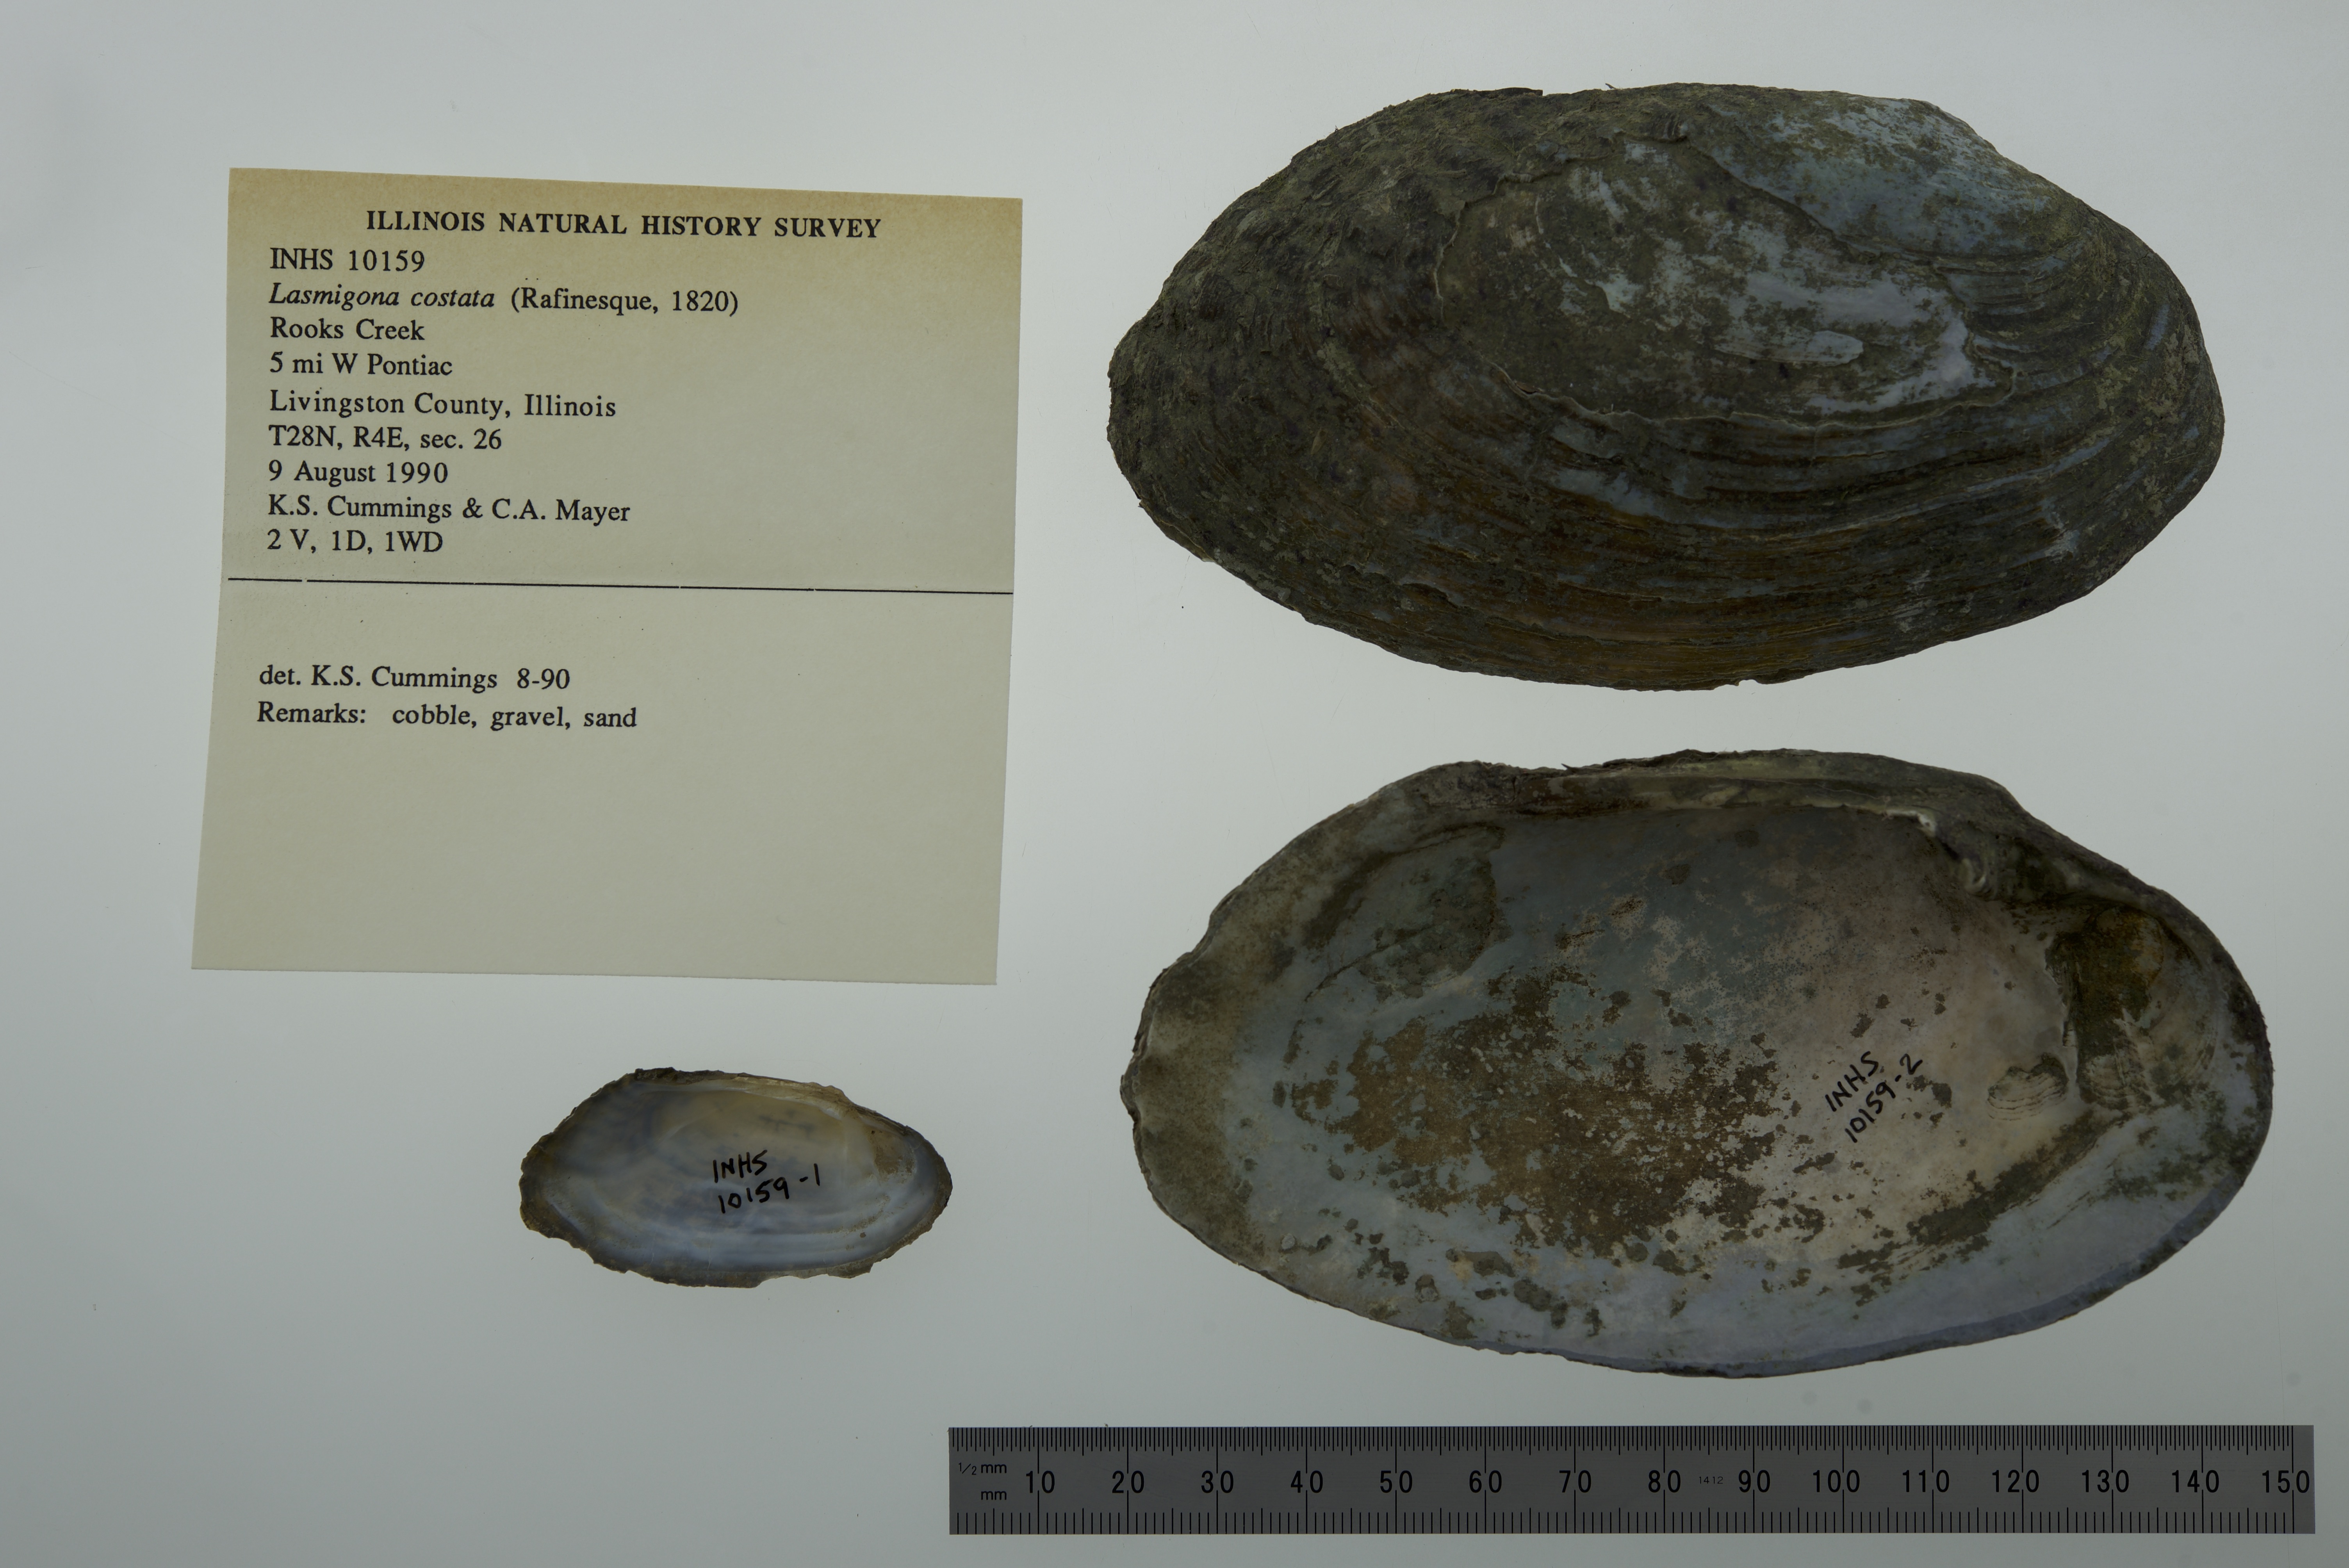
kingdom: Animalia
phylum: Mollusca
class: Bivalvia
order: Unionida
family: Unionidae
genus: Lasmigona
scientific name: Lasmigona costata
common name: Flutedshell
